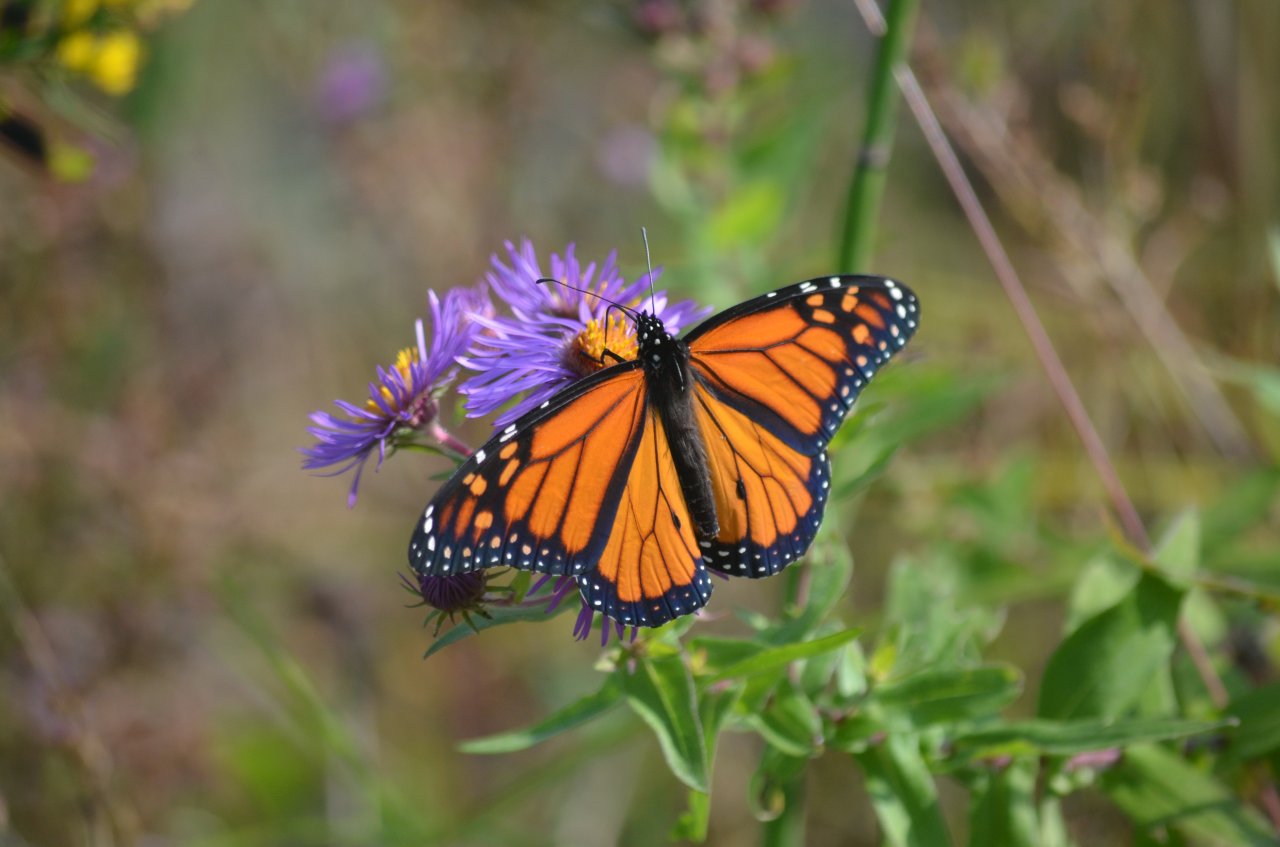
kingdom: Animalia
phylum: Arthropoda
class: Insecta
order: Lepidoptera
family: Nymphalidae
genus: Danaus
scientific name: Danaus plexippus
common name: Monarch
